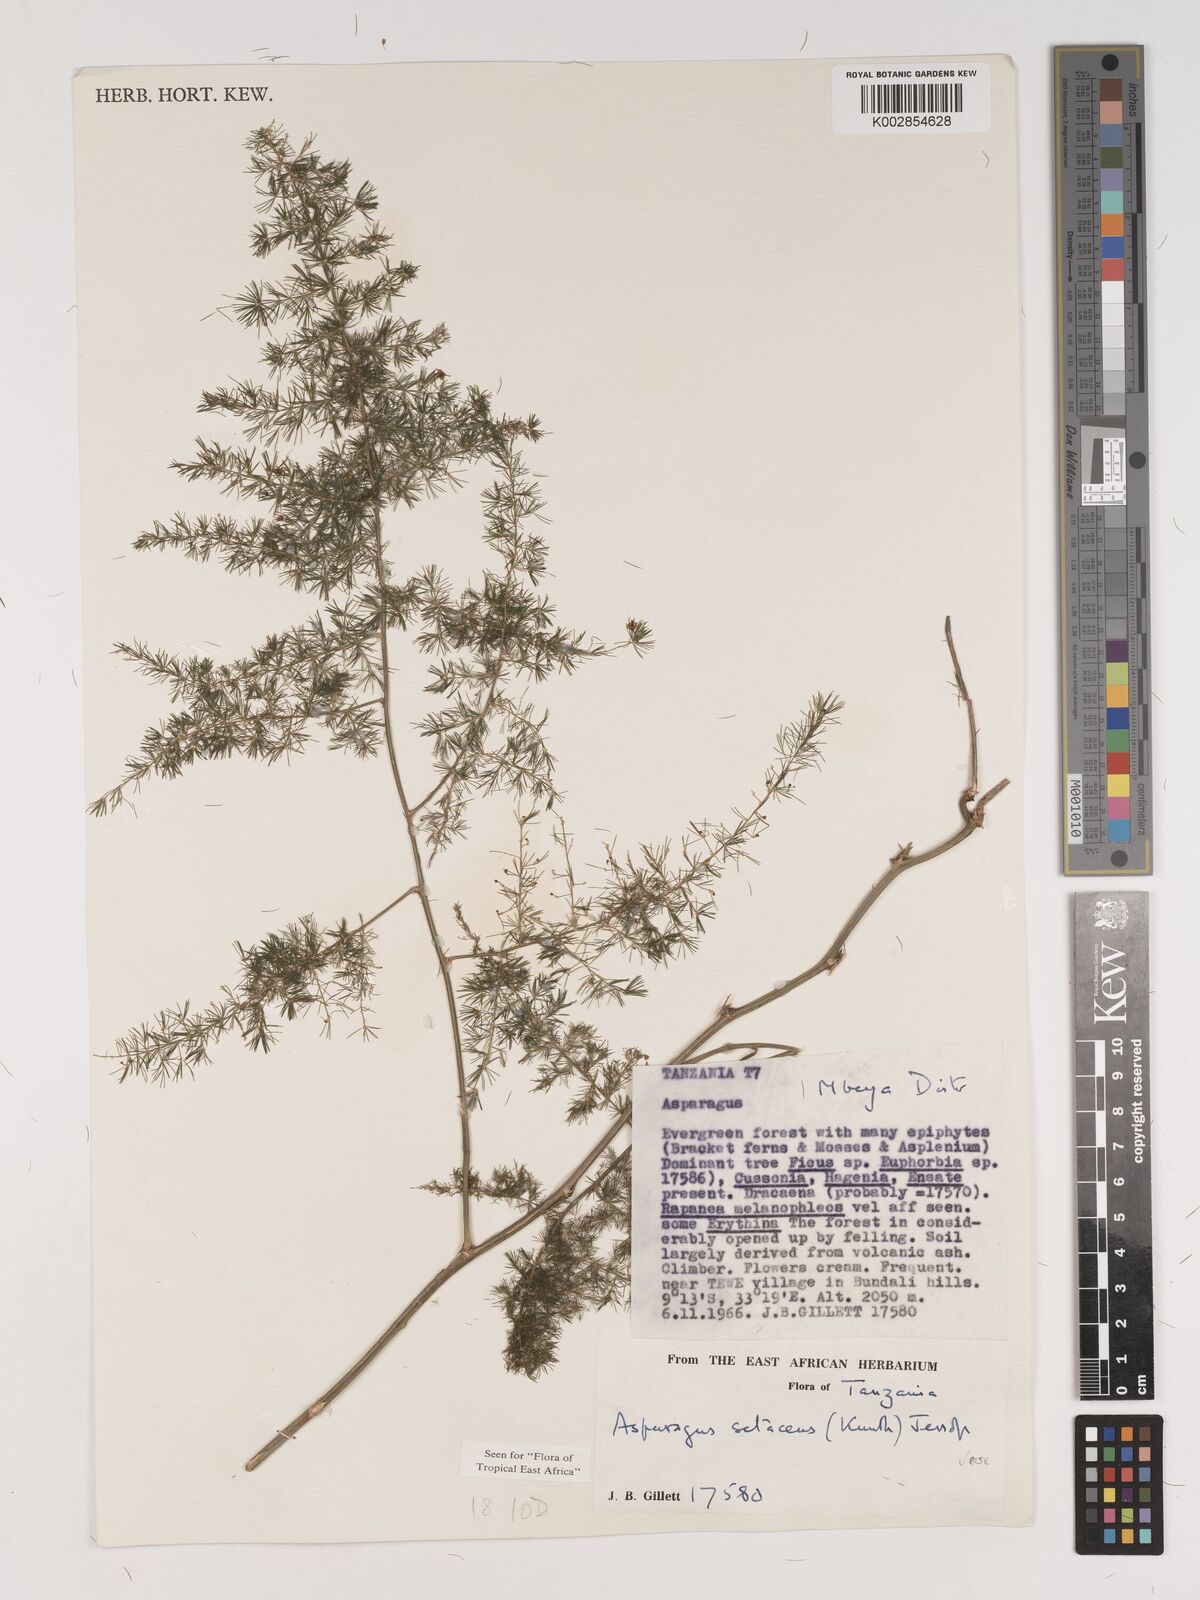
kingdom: Plantae
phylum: Tracheophyta
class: Liliopsida
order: Asparagales
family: Asparagaceae
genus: Asparagus
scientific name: Asparagus setaceus
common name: Common asparagus fern
